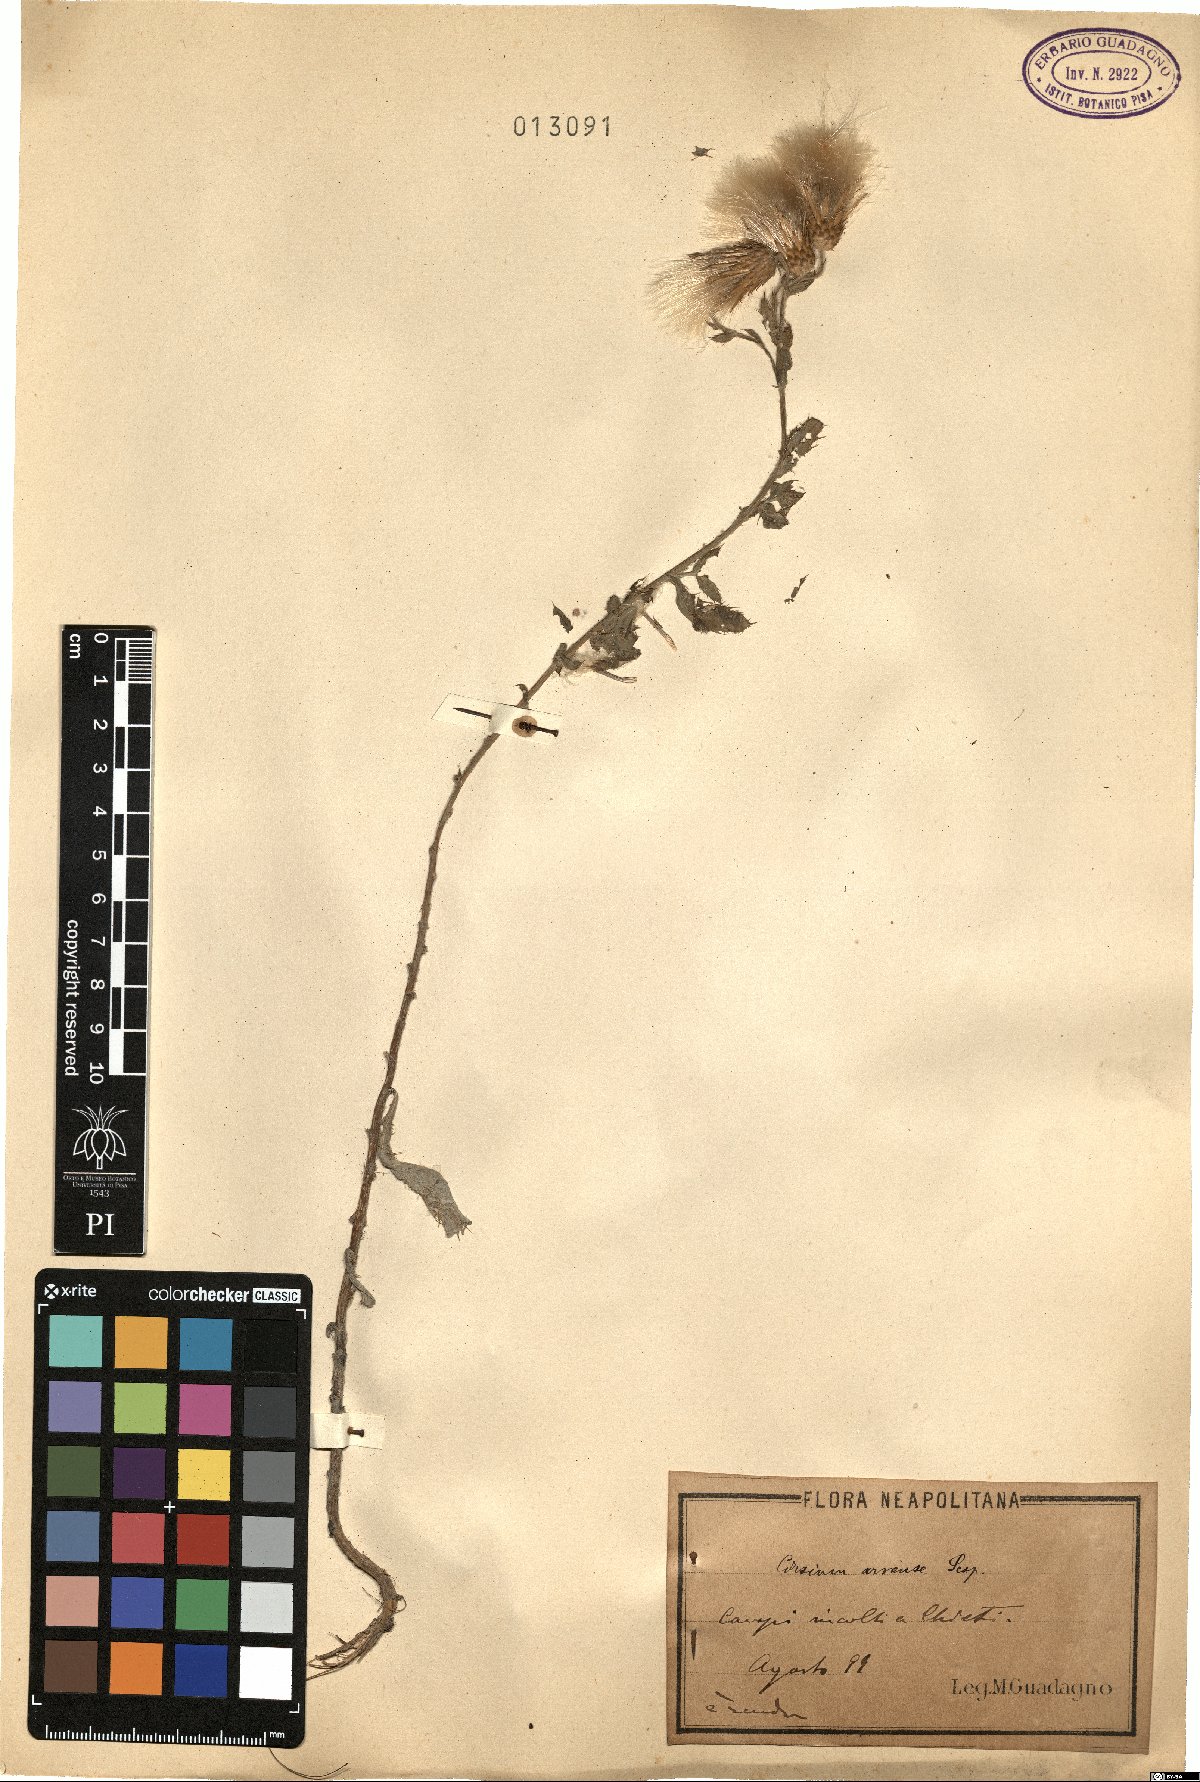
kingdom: Plantae
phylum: Tracheophyta
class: Magnoliopsida
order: Asterales
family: Asteraceae
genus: Cirsium
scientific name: Cirsium arvense
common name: Creeping thistle
